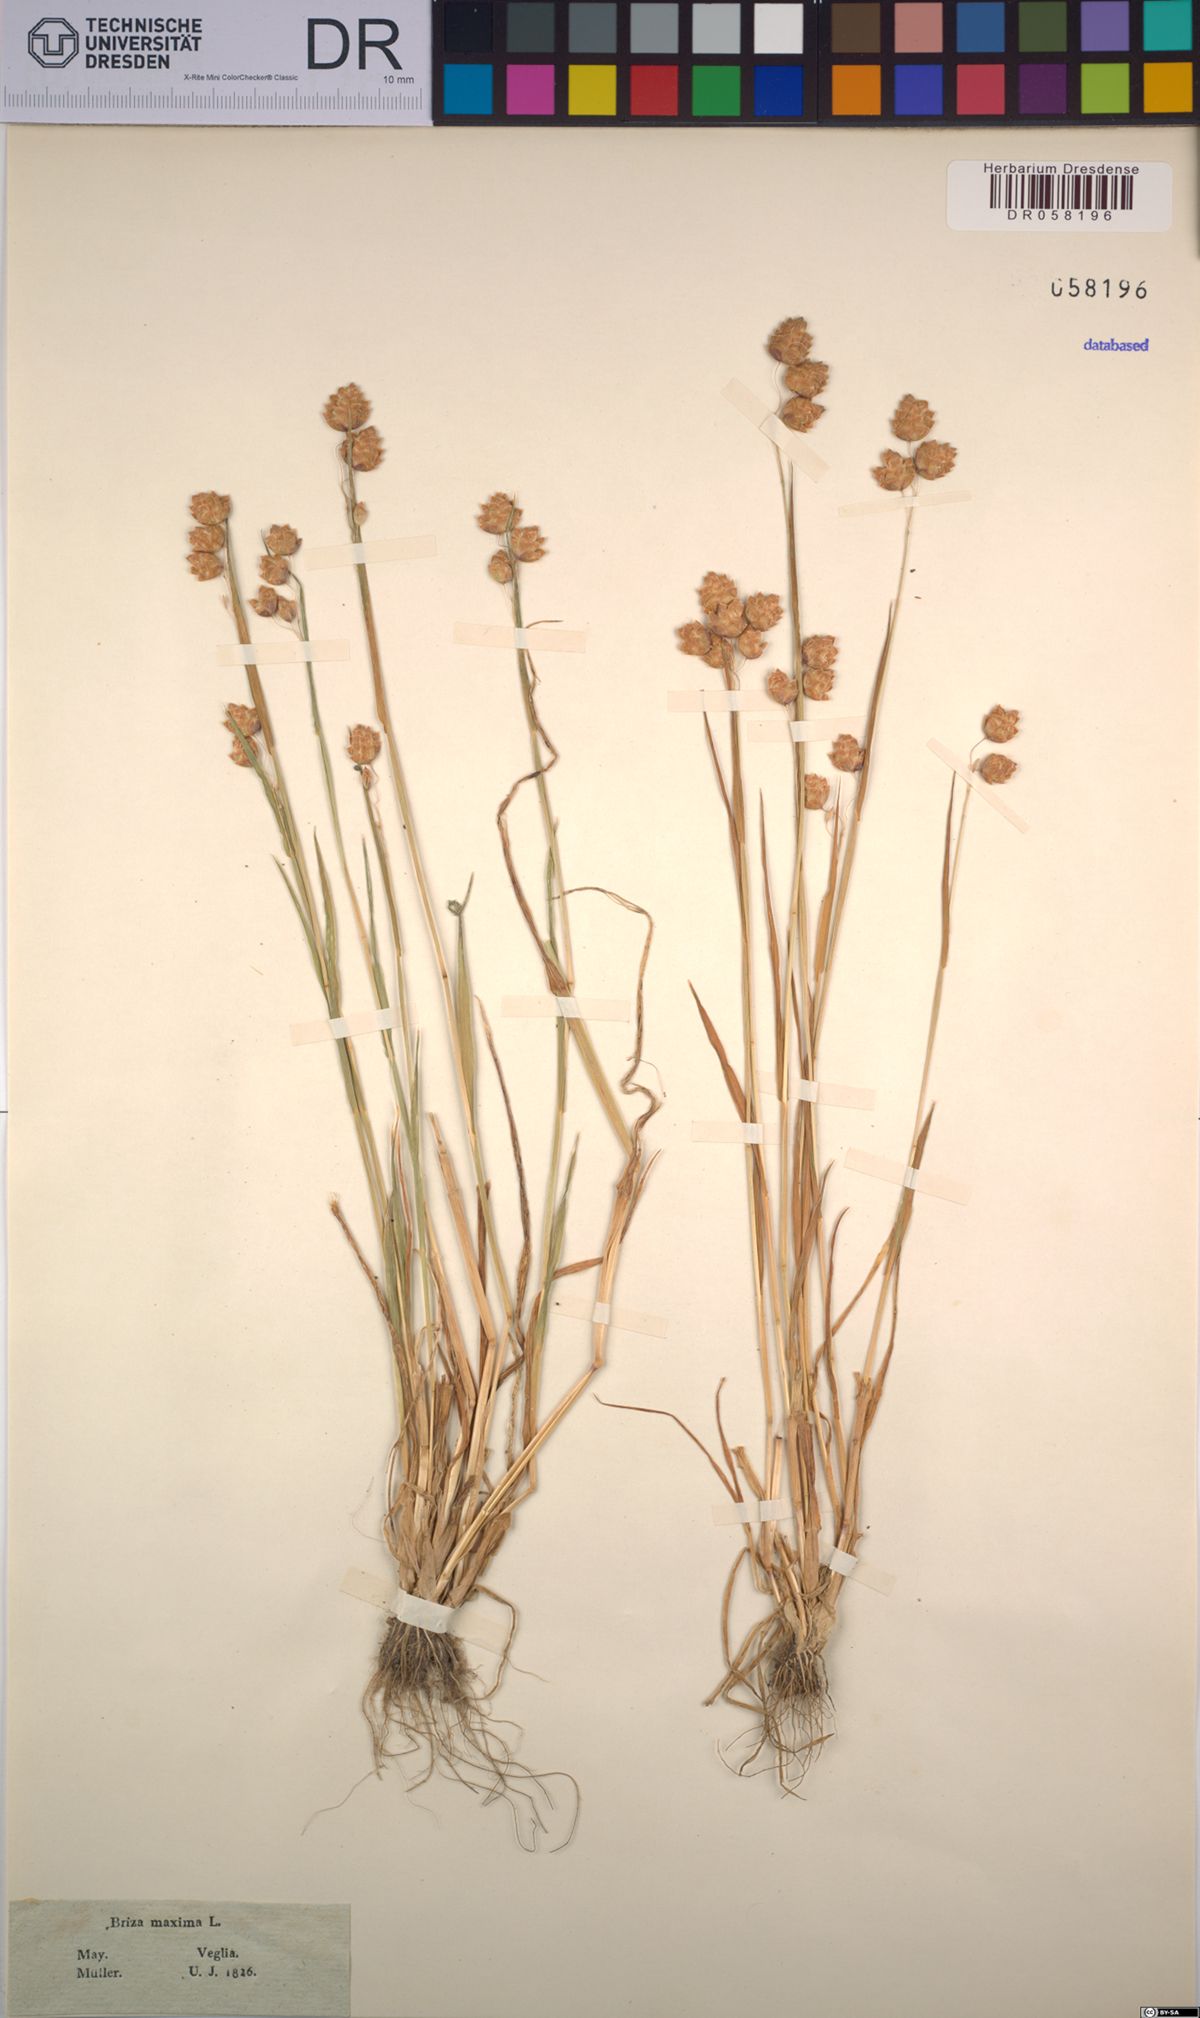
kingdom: Plantae
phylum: Tracheophyta
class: Liliopsida
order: Poales
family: Poaceae
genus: Briza
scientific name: Briza maxima
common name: Big quakinggrass
